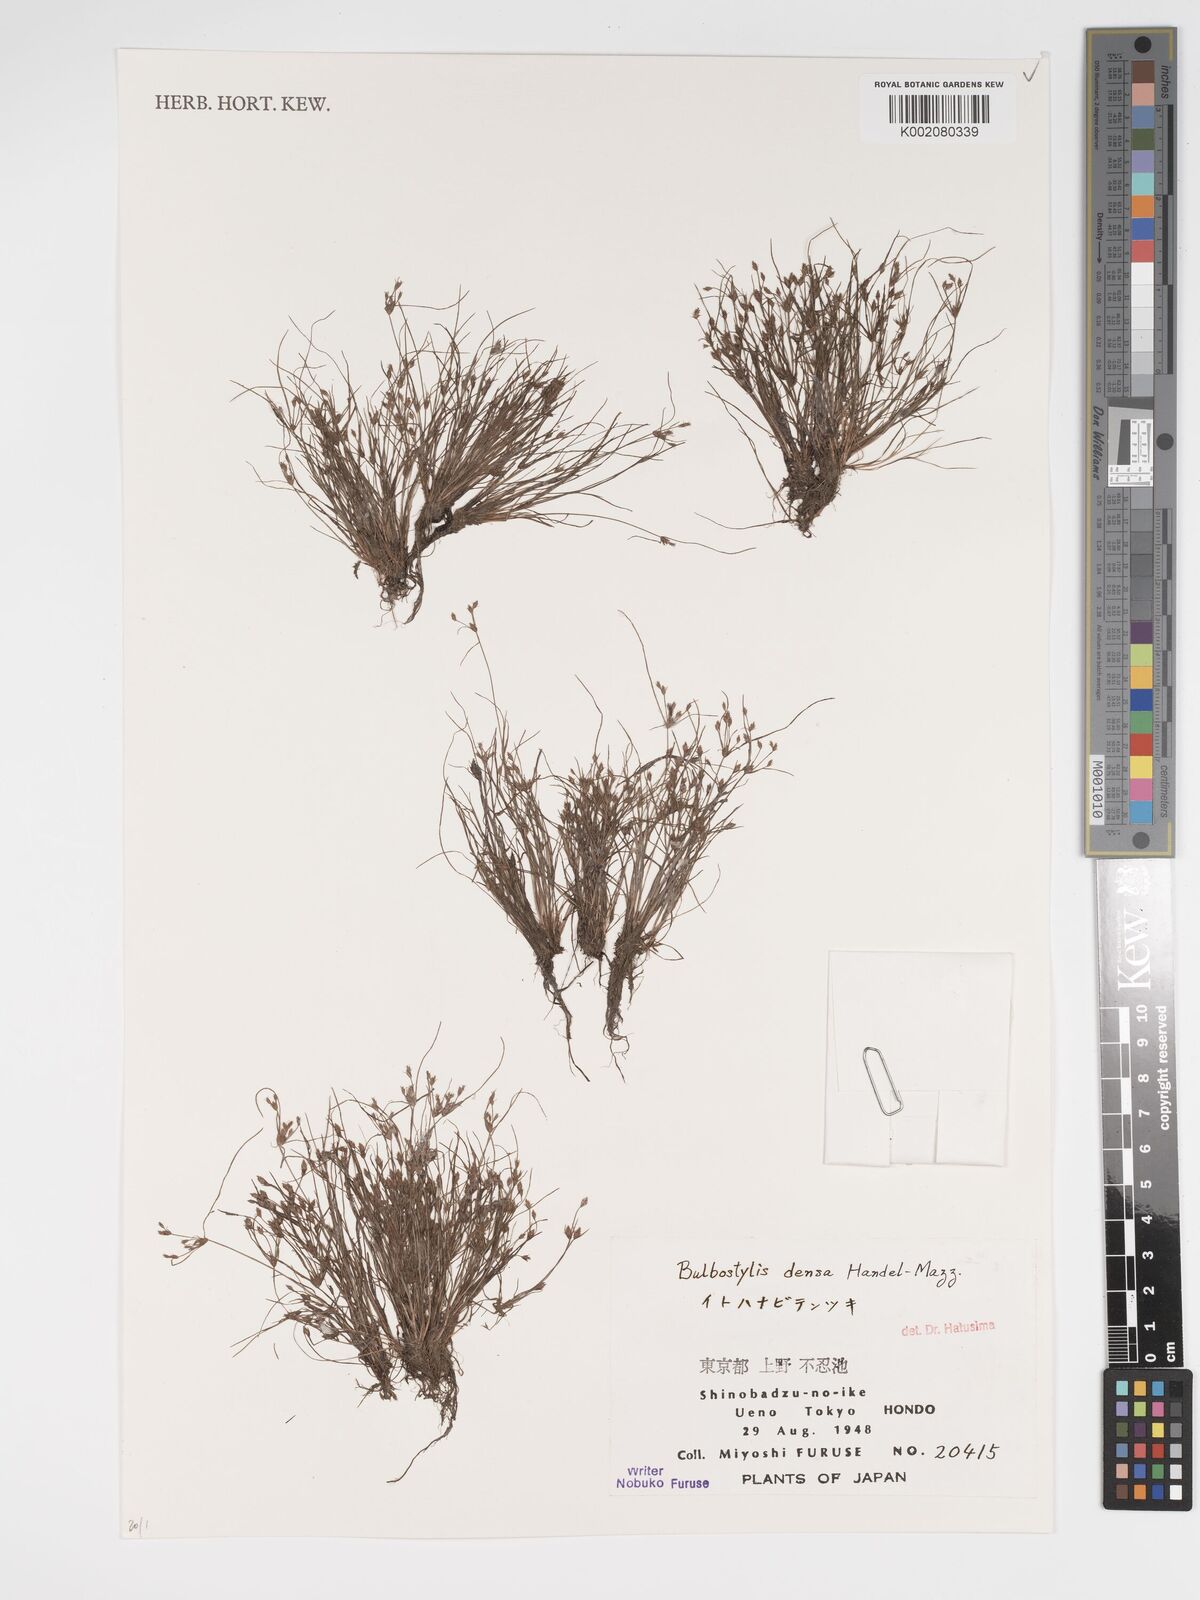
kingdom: Plantae
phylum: Tracheophyta
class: Liliopsida
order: Poales
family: Cyperaceae
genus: Bulbostylis
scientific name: Bulbostylis densa
